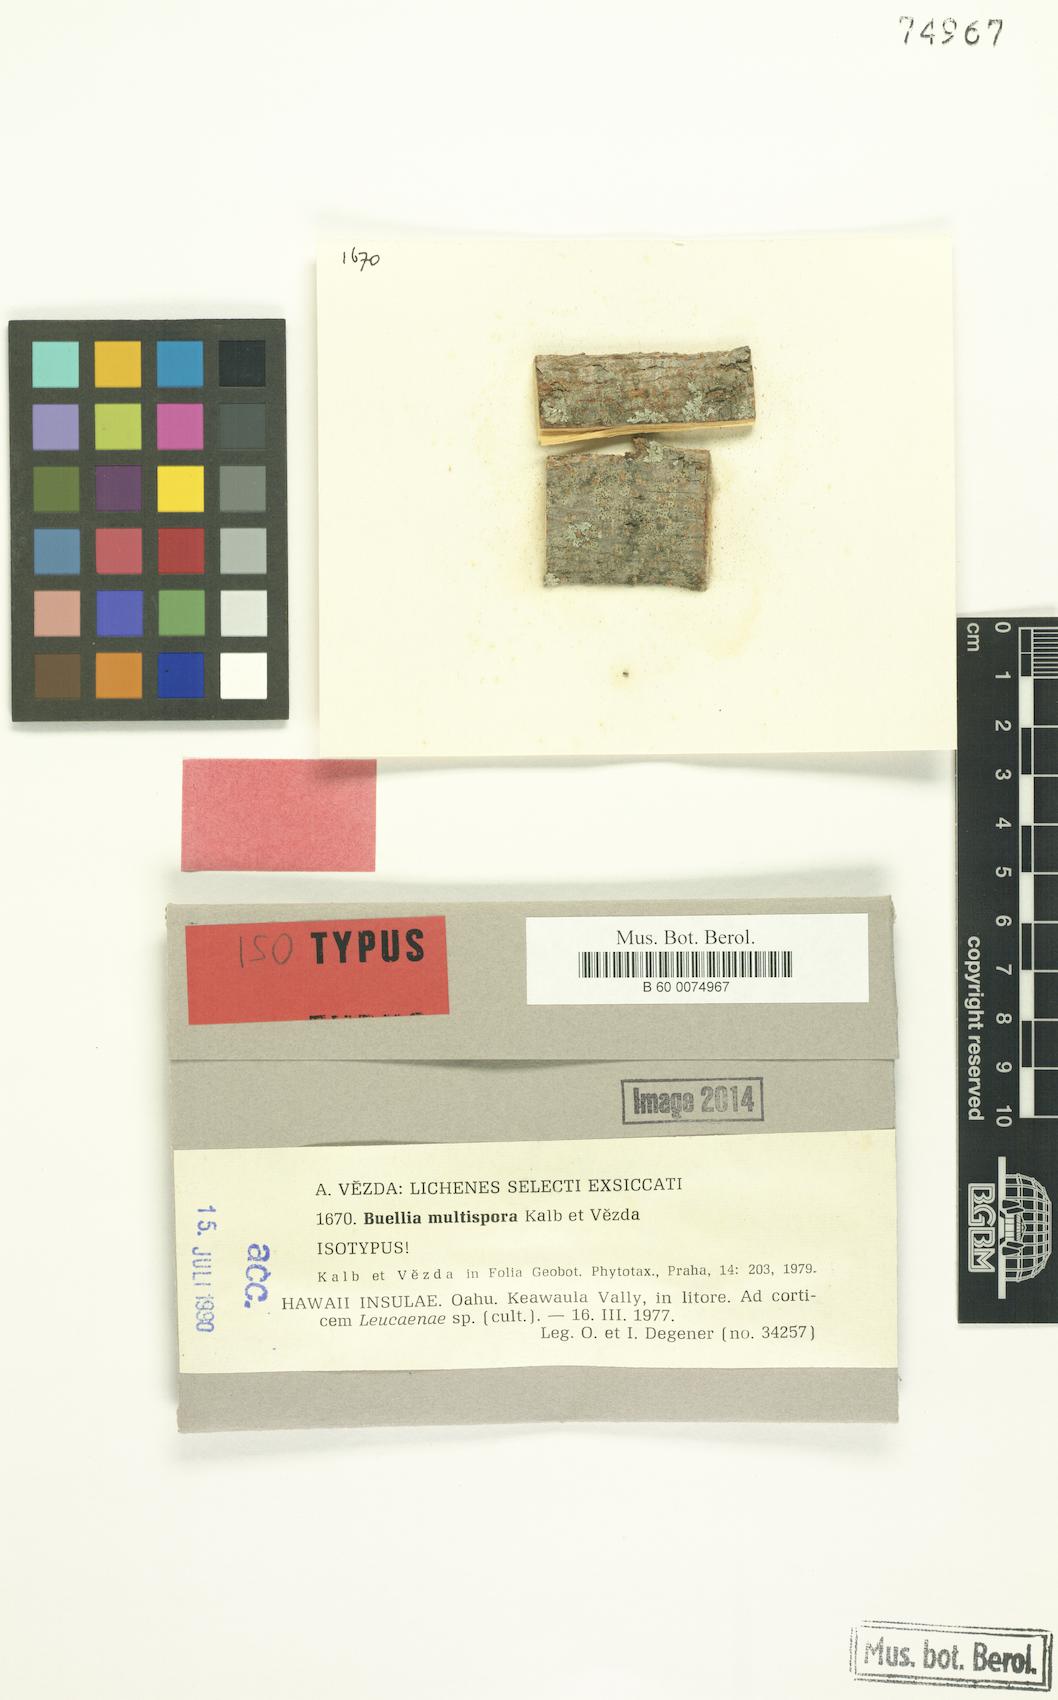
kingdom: Fungi
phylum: Ascomycota
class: Lecanoromycetes
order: Caliciales
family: Caliciaceae
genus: Buellia
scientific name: Buellia multispora
